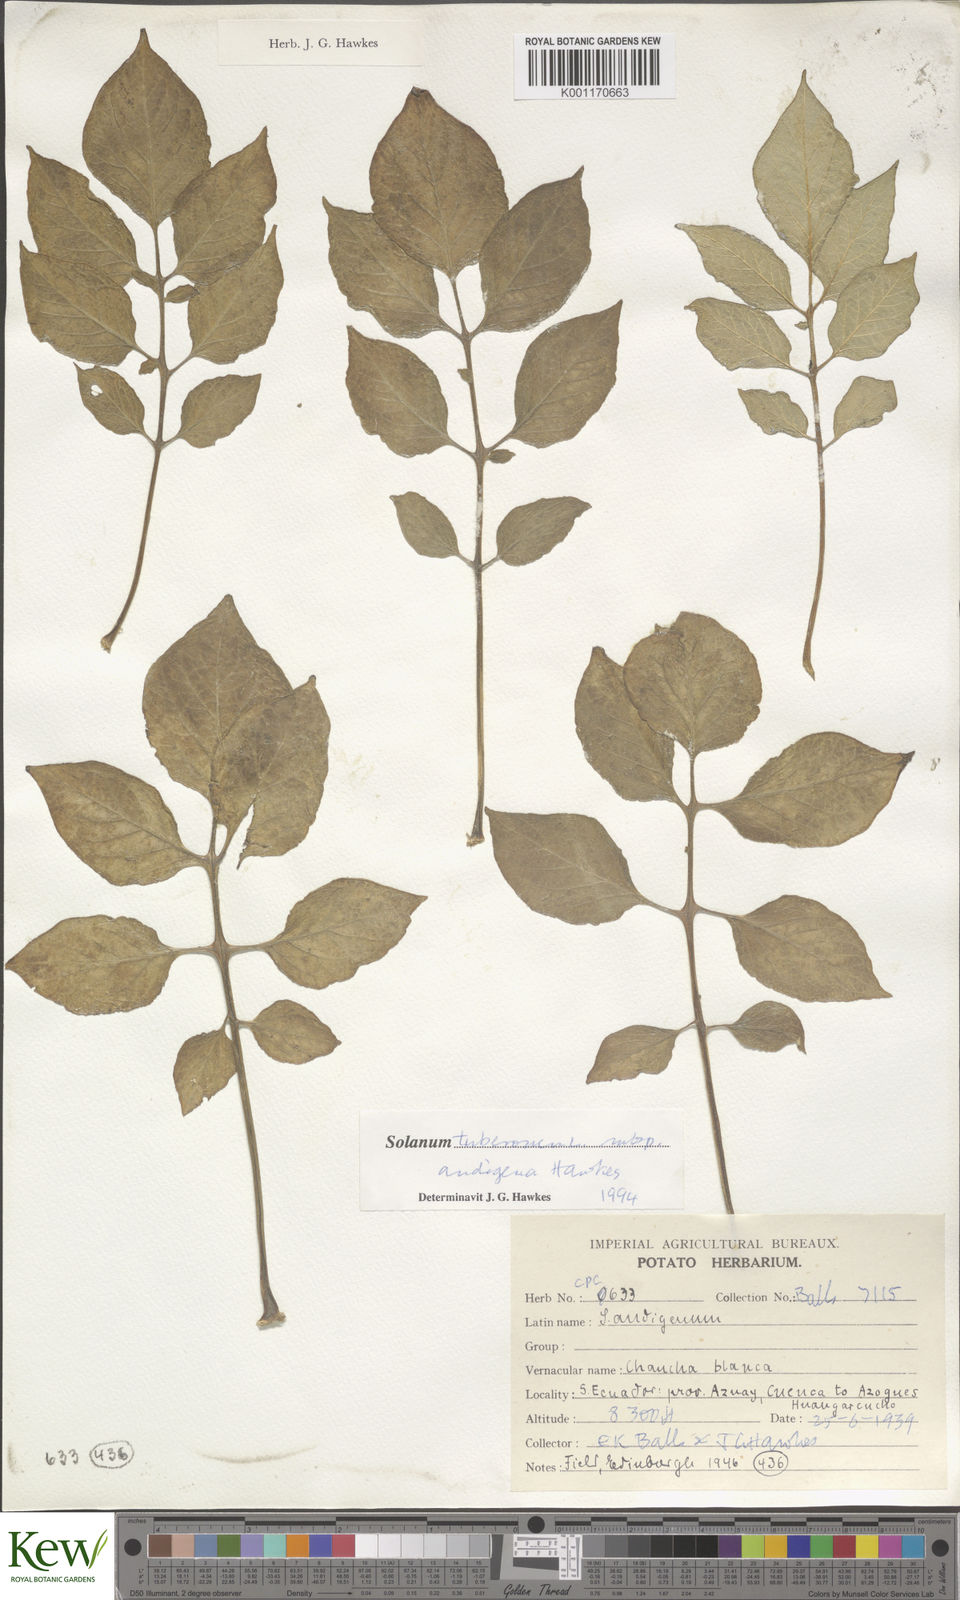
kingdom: Plantae
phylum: Tracheophyta
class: Magnoliopsida
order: Solanales
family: Solanaceae
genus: Solanum
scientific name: Solanum tuberosum
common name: Potato
